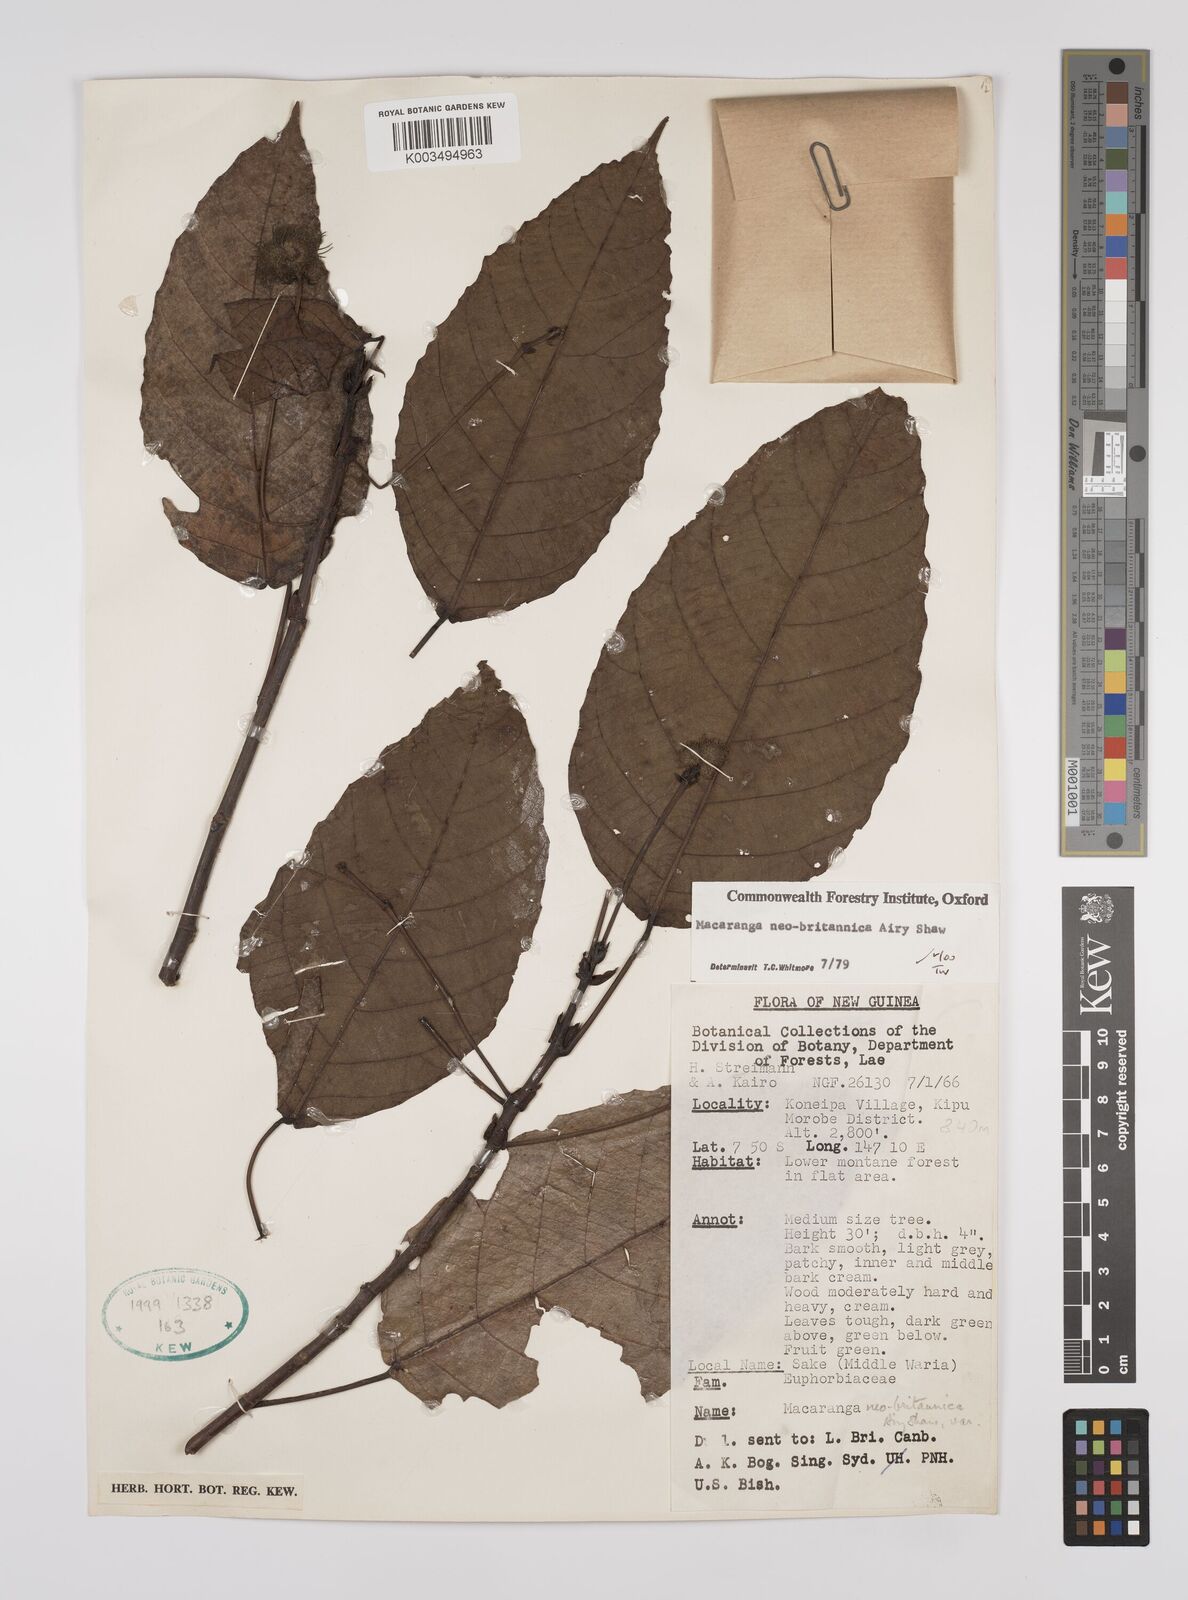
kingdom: Plantae
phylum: Tracheophyta
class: Magnoliopsida
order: Malpighiales
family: Euphorbiaceae
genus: Macaranga
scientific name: Macaranga neobritannica
